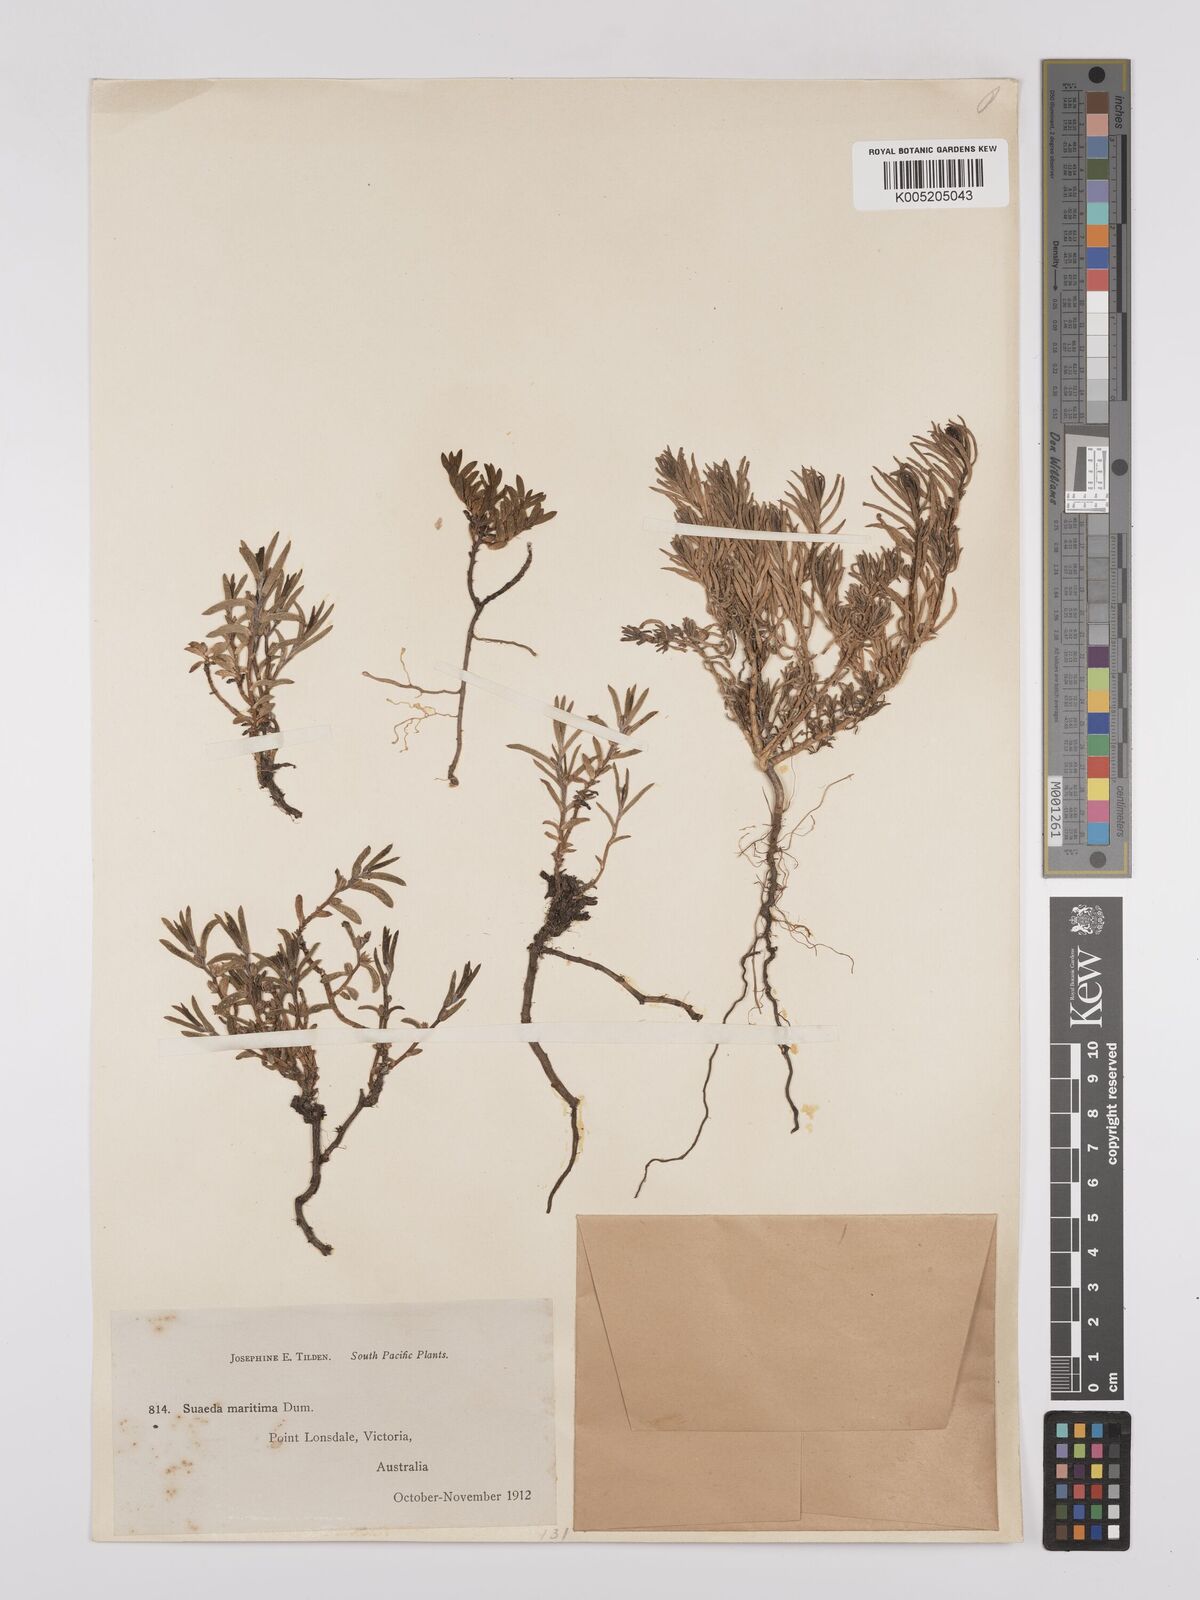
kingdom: Plantae
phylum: Tracheophyta
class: Magnoliopsida
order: Caryophyllales
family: Amaranthaceae
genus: Suaeda
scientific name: Suaeda australis
